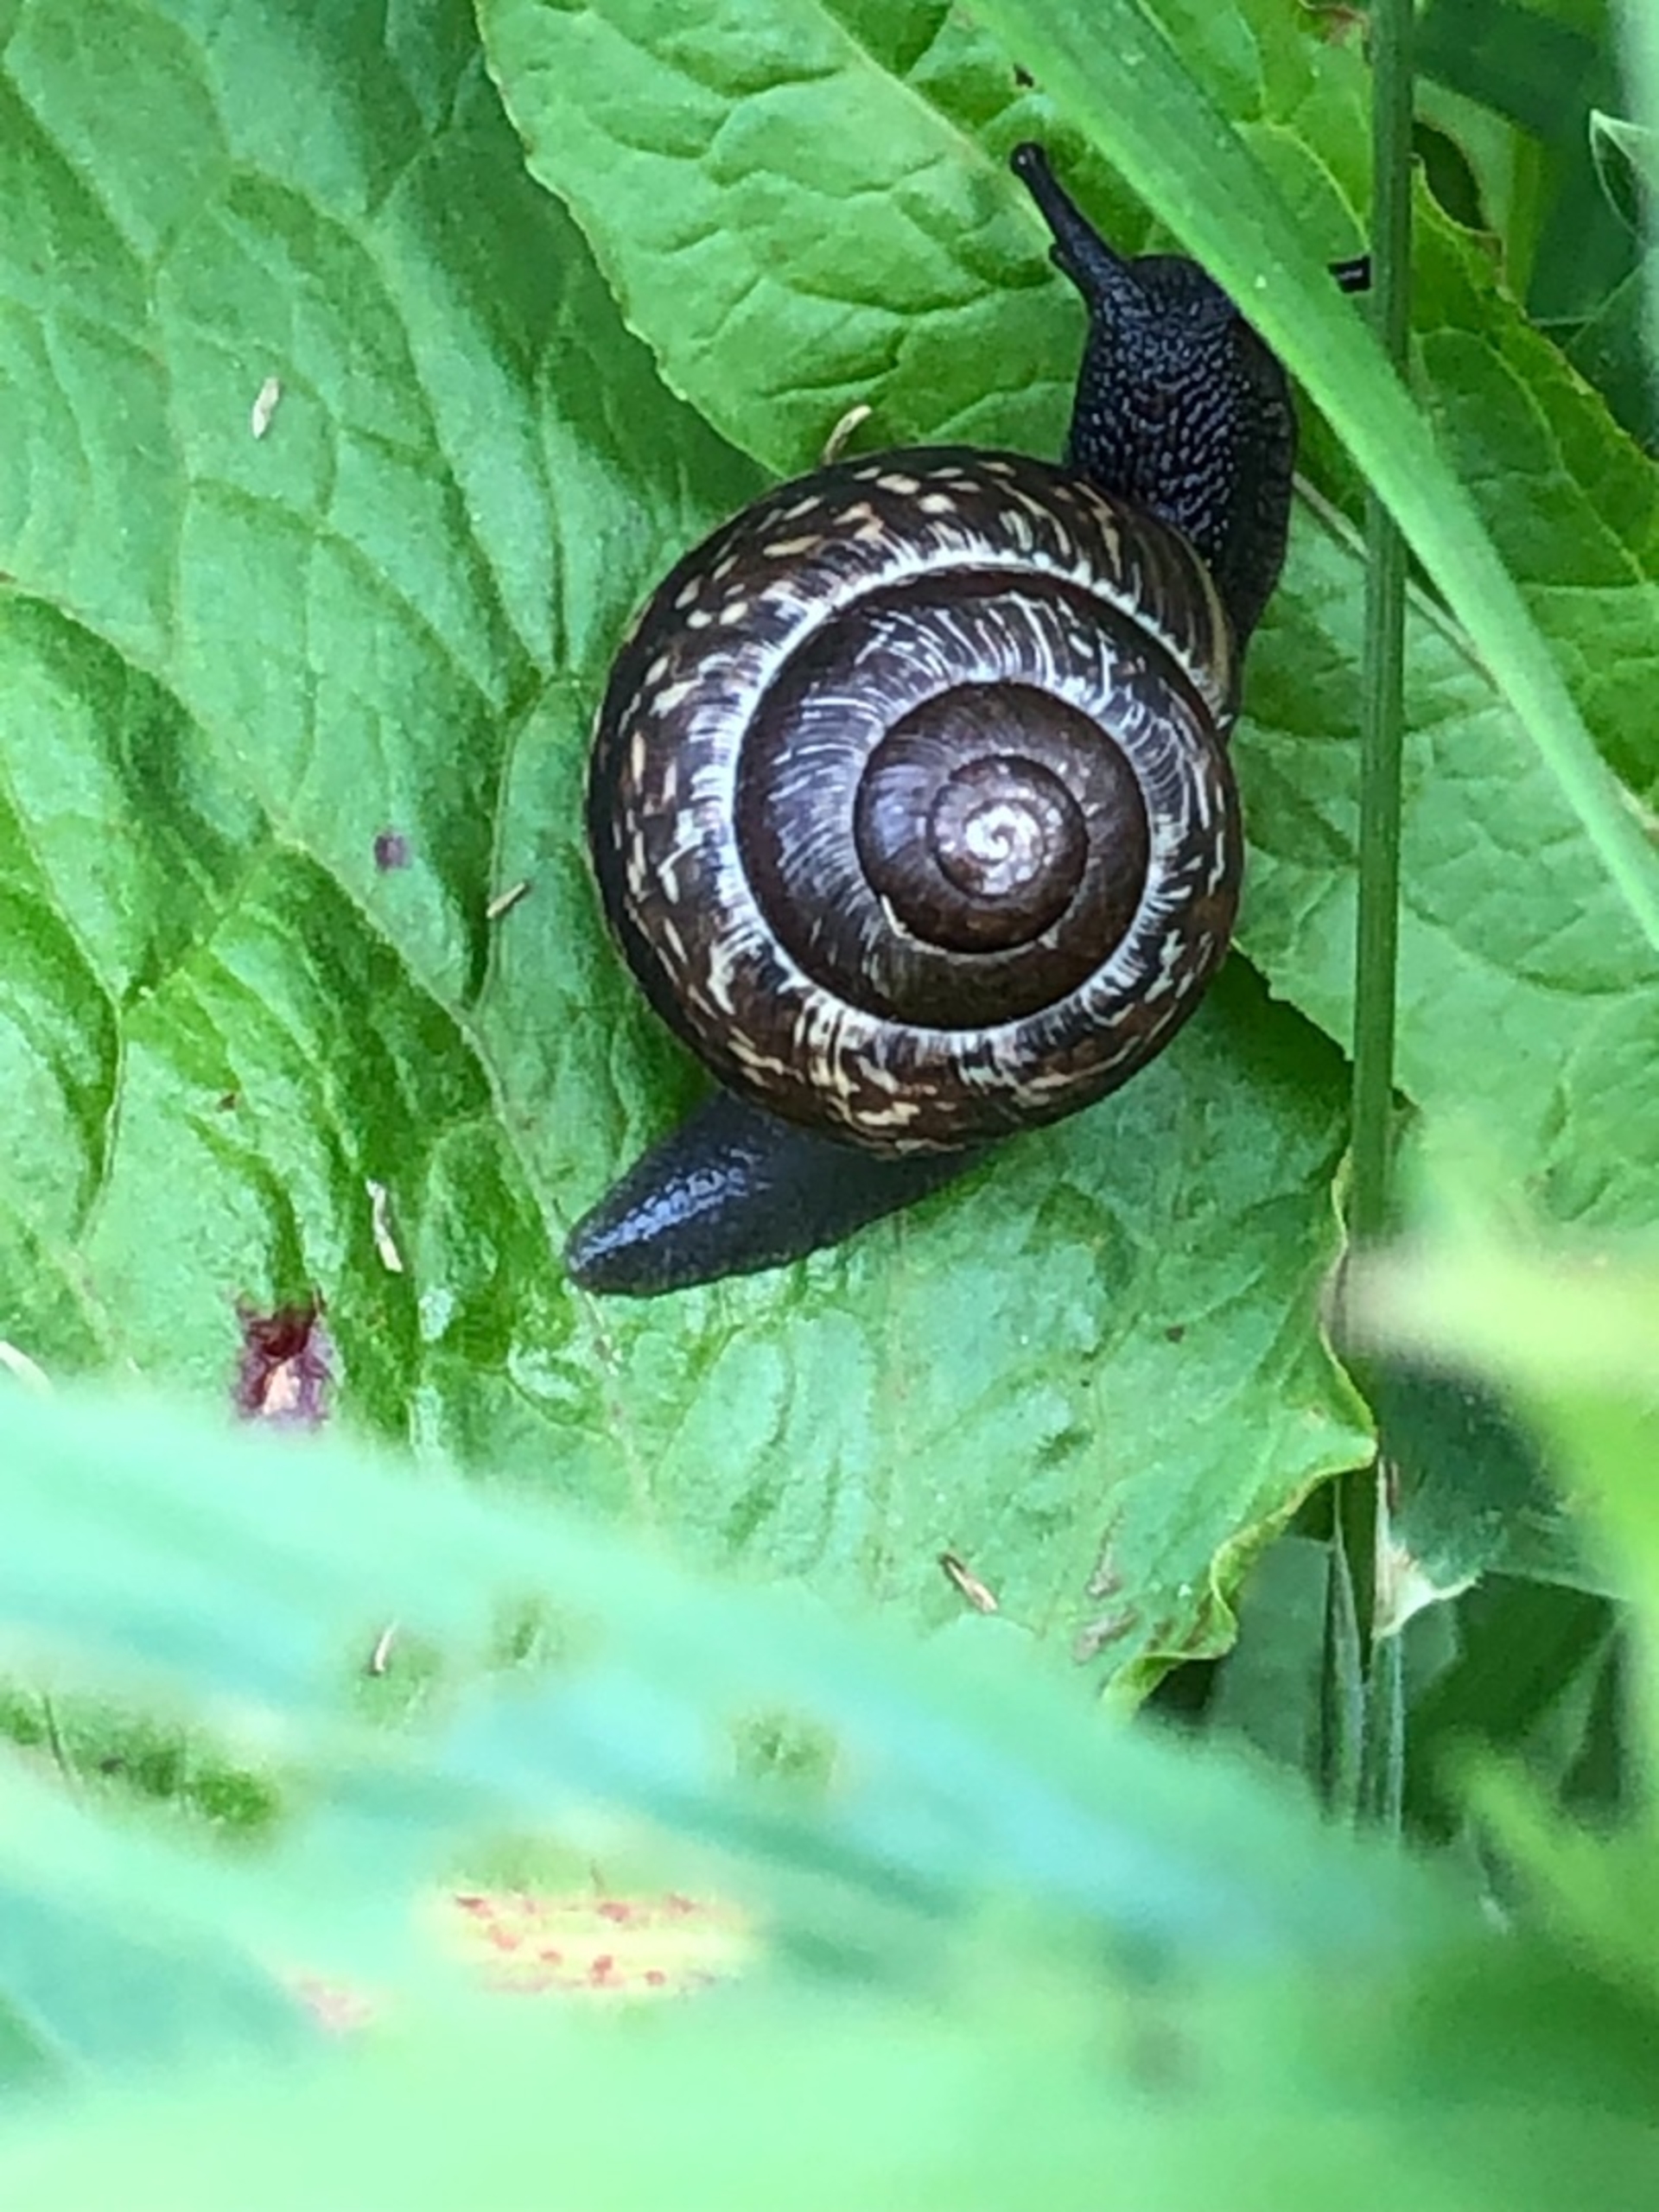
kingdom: Animalia
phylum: Mollusca
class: Gastropoda
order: Stylommatophora
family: Helicidae
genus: Arianta
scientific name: Arianta arbustorum
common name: Kratsnegl
